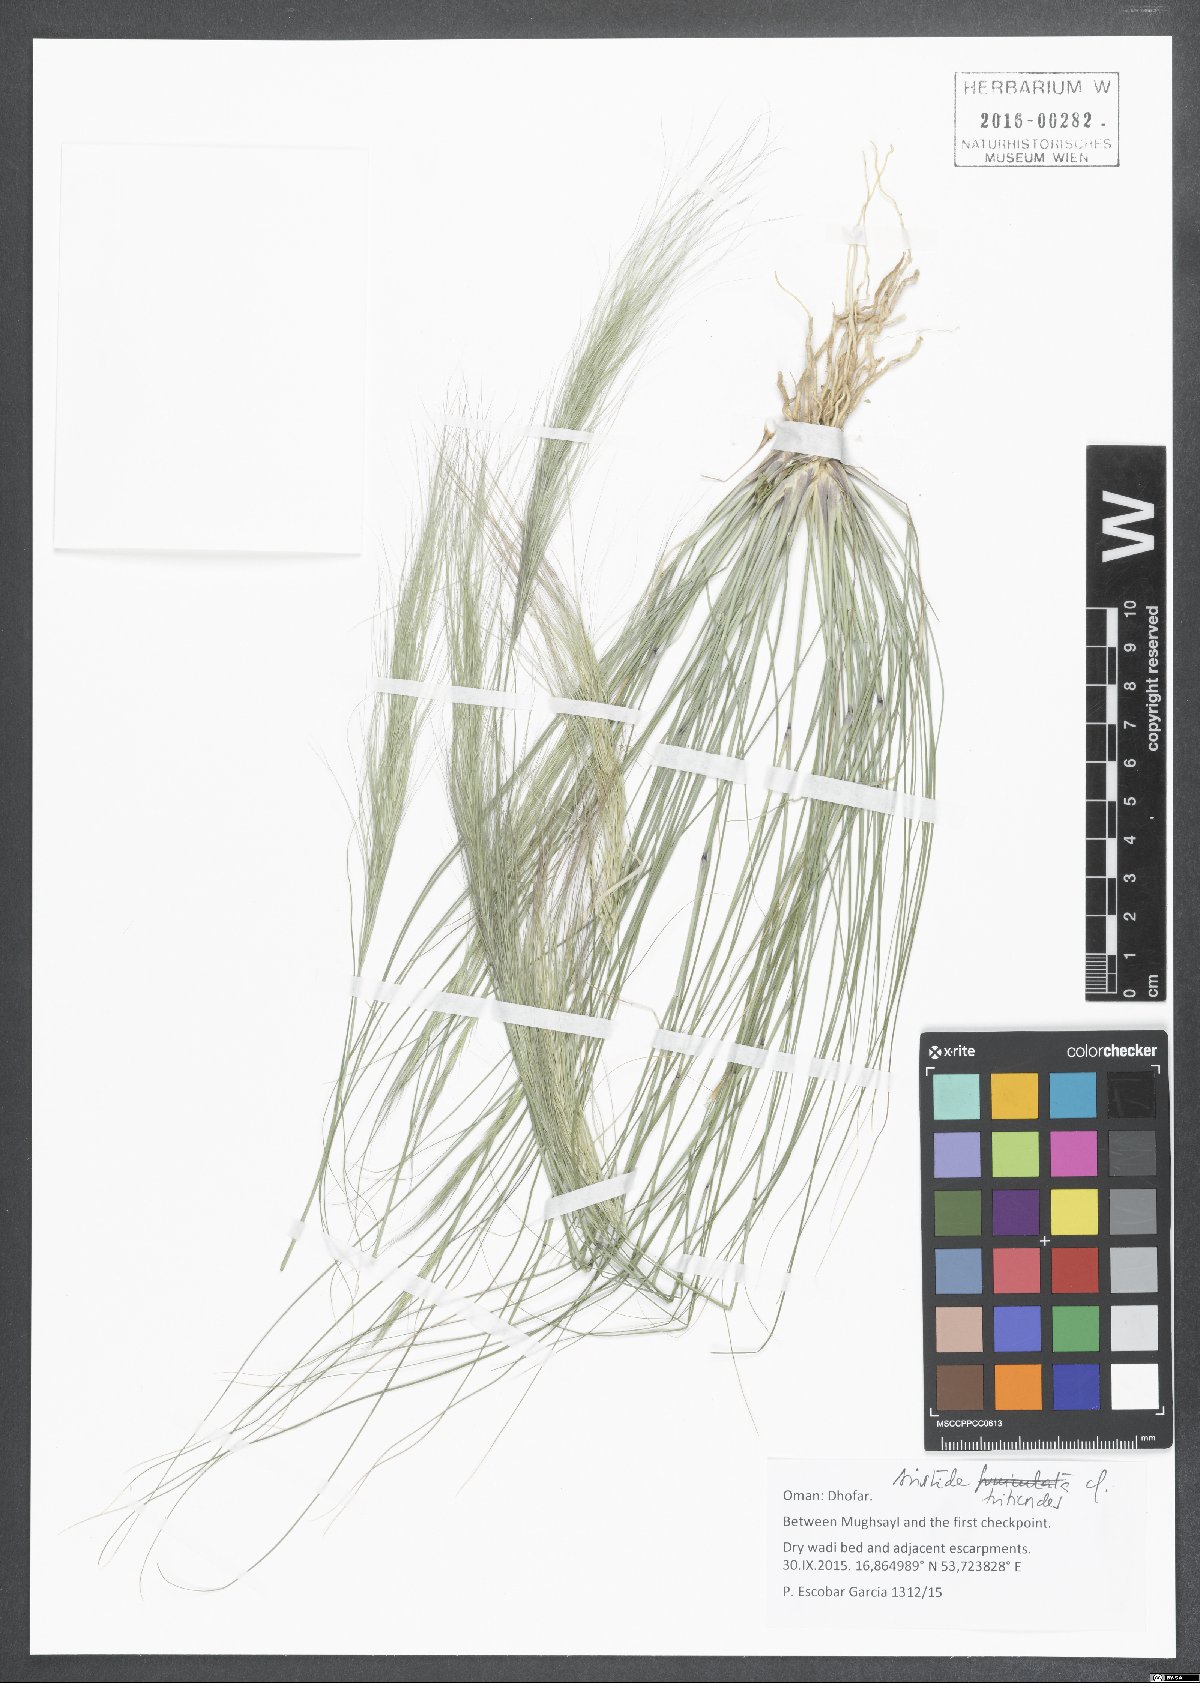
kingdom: Plantae
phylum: Tracheophyta
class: Liliopsida
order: Poales
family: Poaceae
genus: Aristida
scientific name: Aristida triticoides
